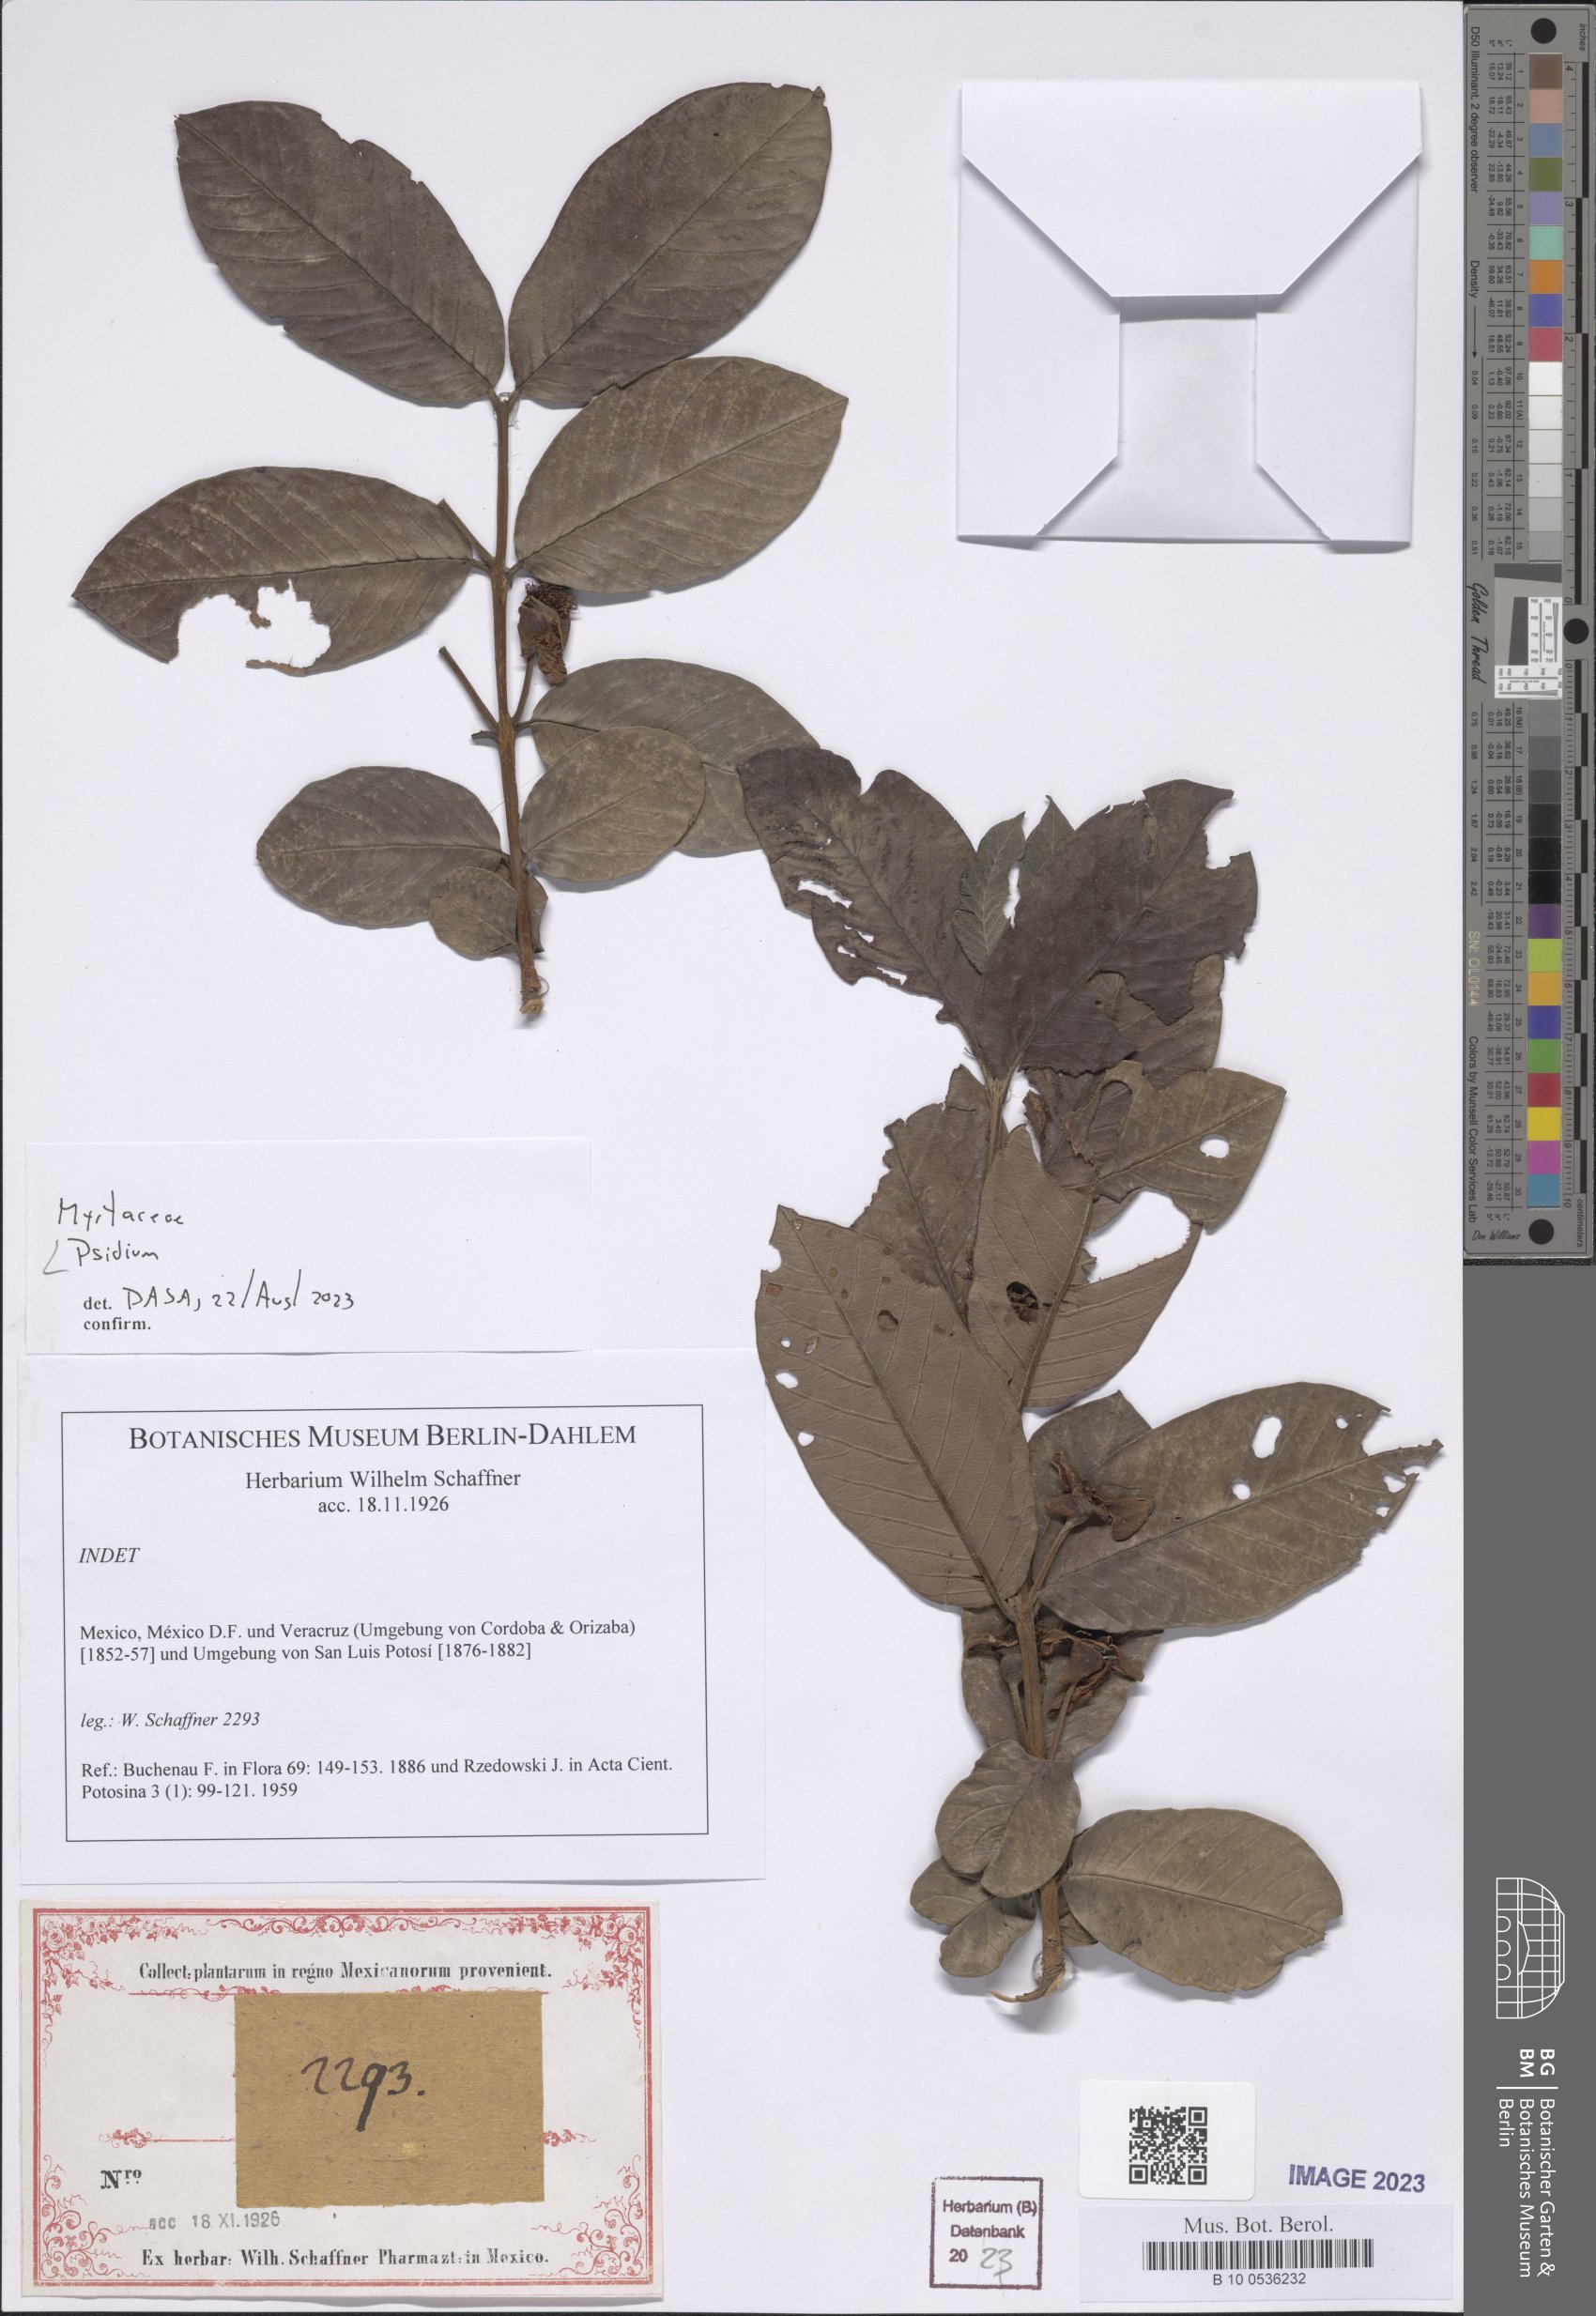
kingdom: Plantae
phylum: Tracheophyta
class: Magnoliopsida
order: Myrtales
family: Myrtaceae
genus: Psidium
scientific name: Psidium
